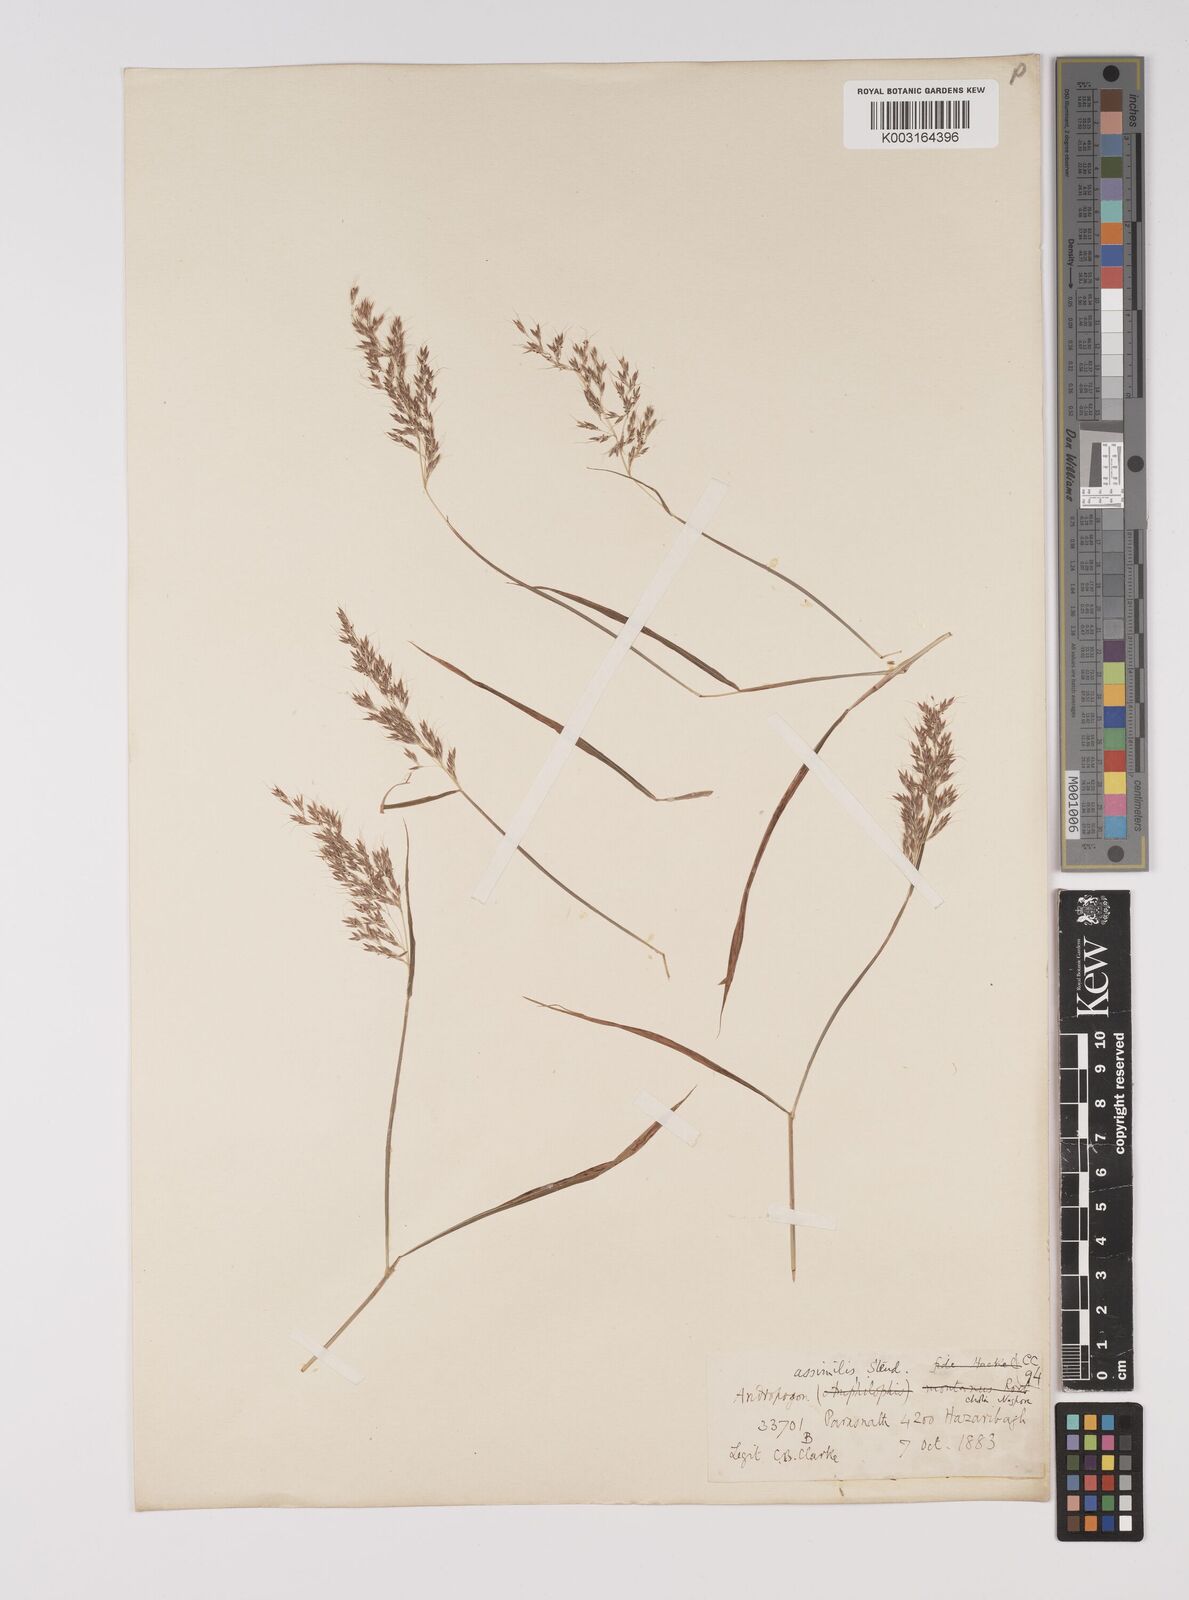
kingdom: Plantae
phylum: Tracheophyta
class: Liliopsida
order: Poales
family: Poaceae
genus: Capillipedium
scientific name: Capillipedium assimile
